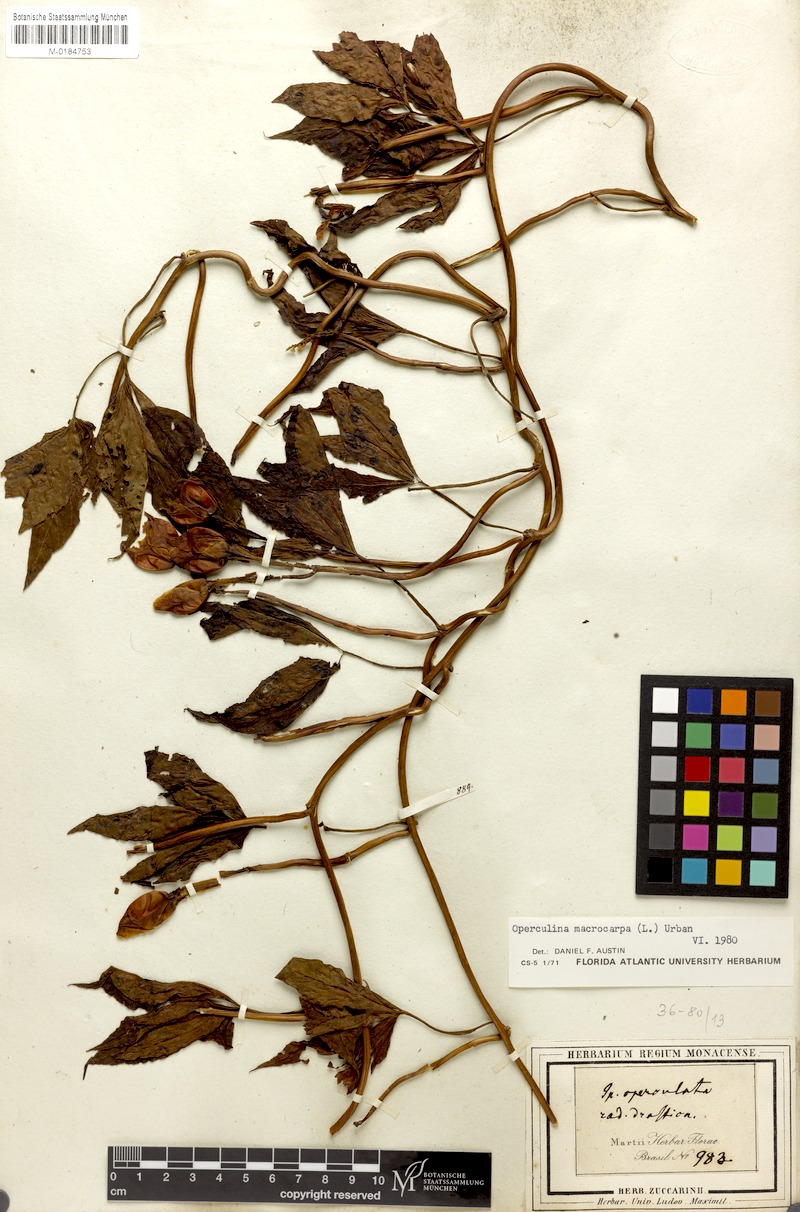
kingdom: Plantae
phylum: Tracheophyta
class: Magnoliopsida
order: Solanales
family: Convolvulaceae
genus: Operculina
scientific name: Operculina macrocarpa
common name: Brazilian jalap
